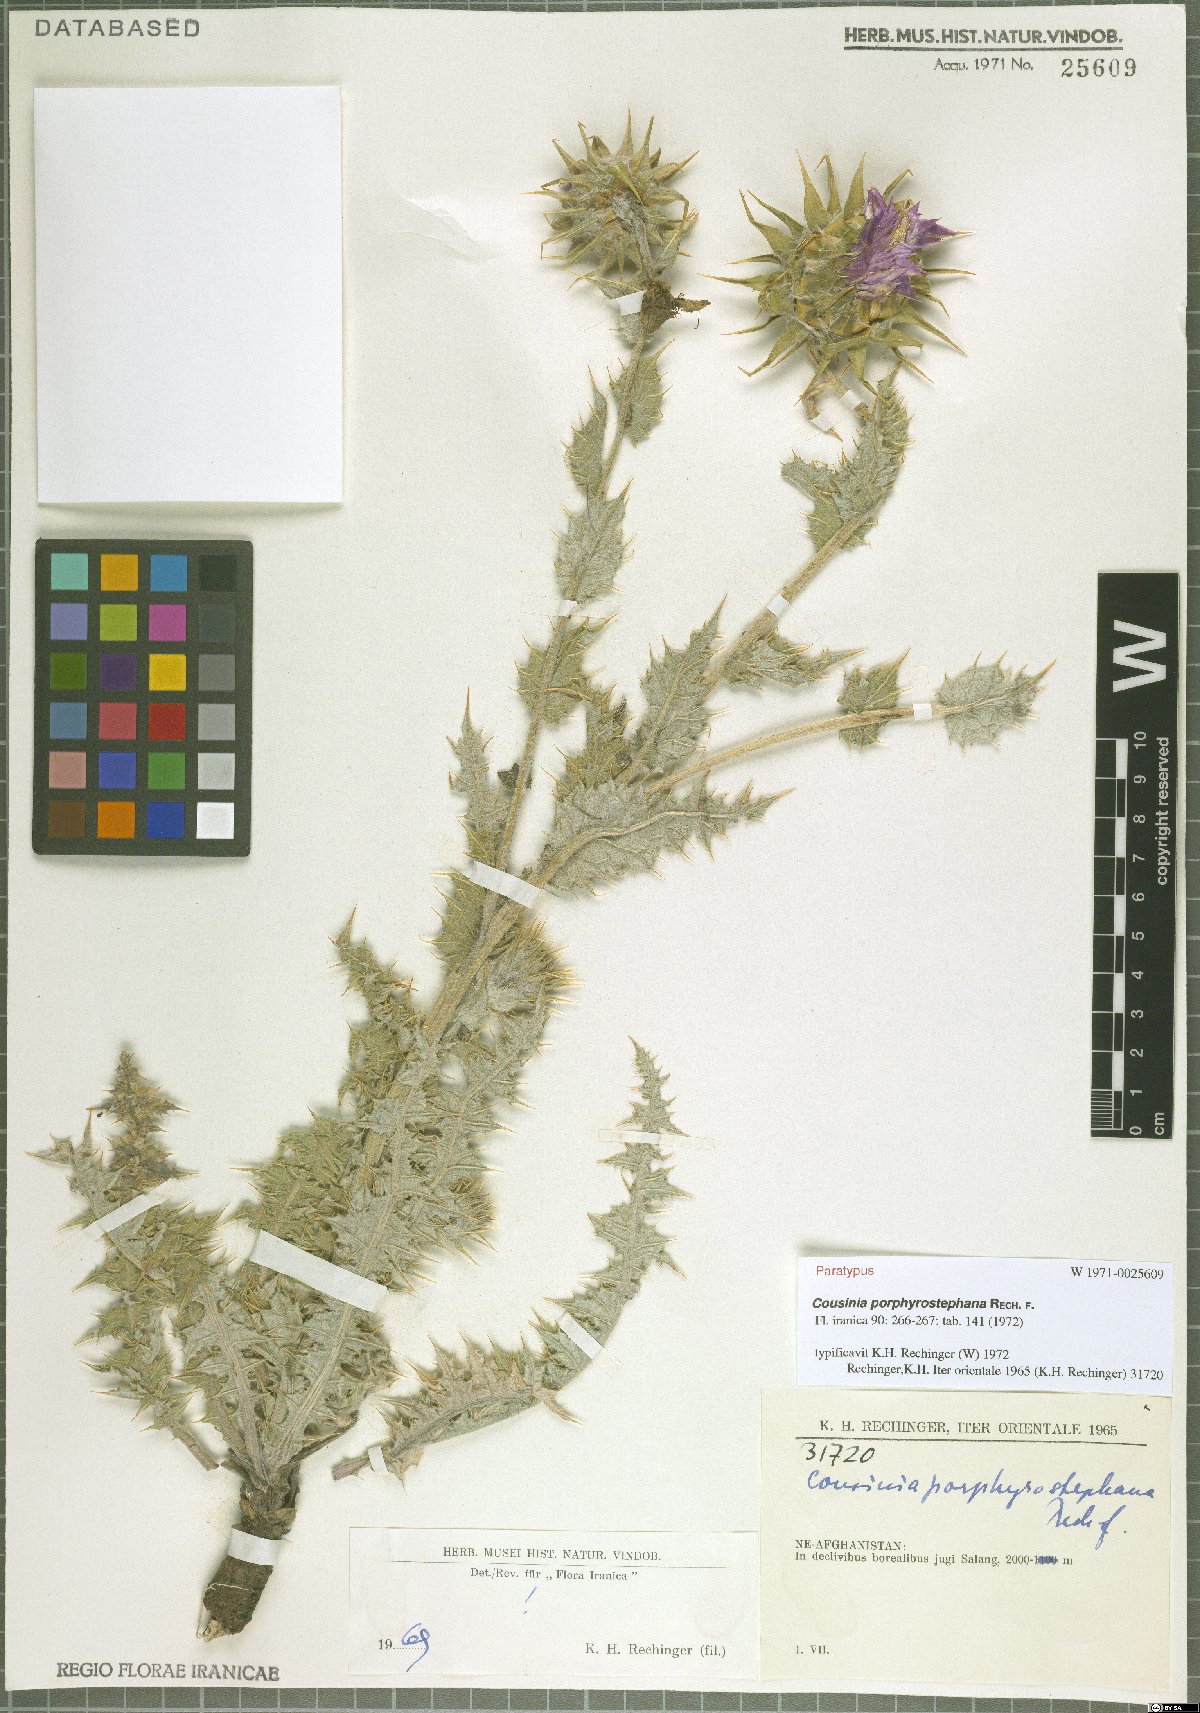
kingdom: Plantae
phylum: Tracheophyta
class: Magnoliopsida
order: Asterales
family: Asteraceae
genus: Cousinia
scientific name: Cousinia porphyrostephana
